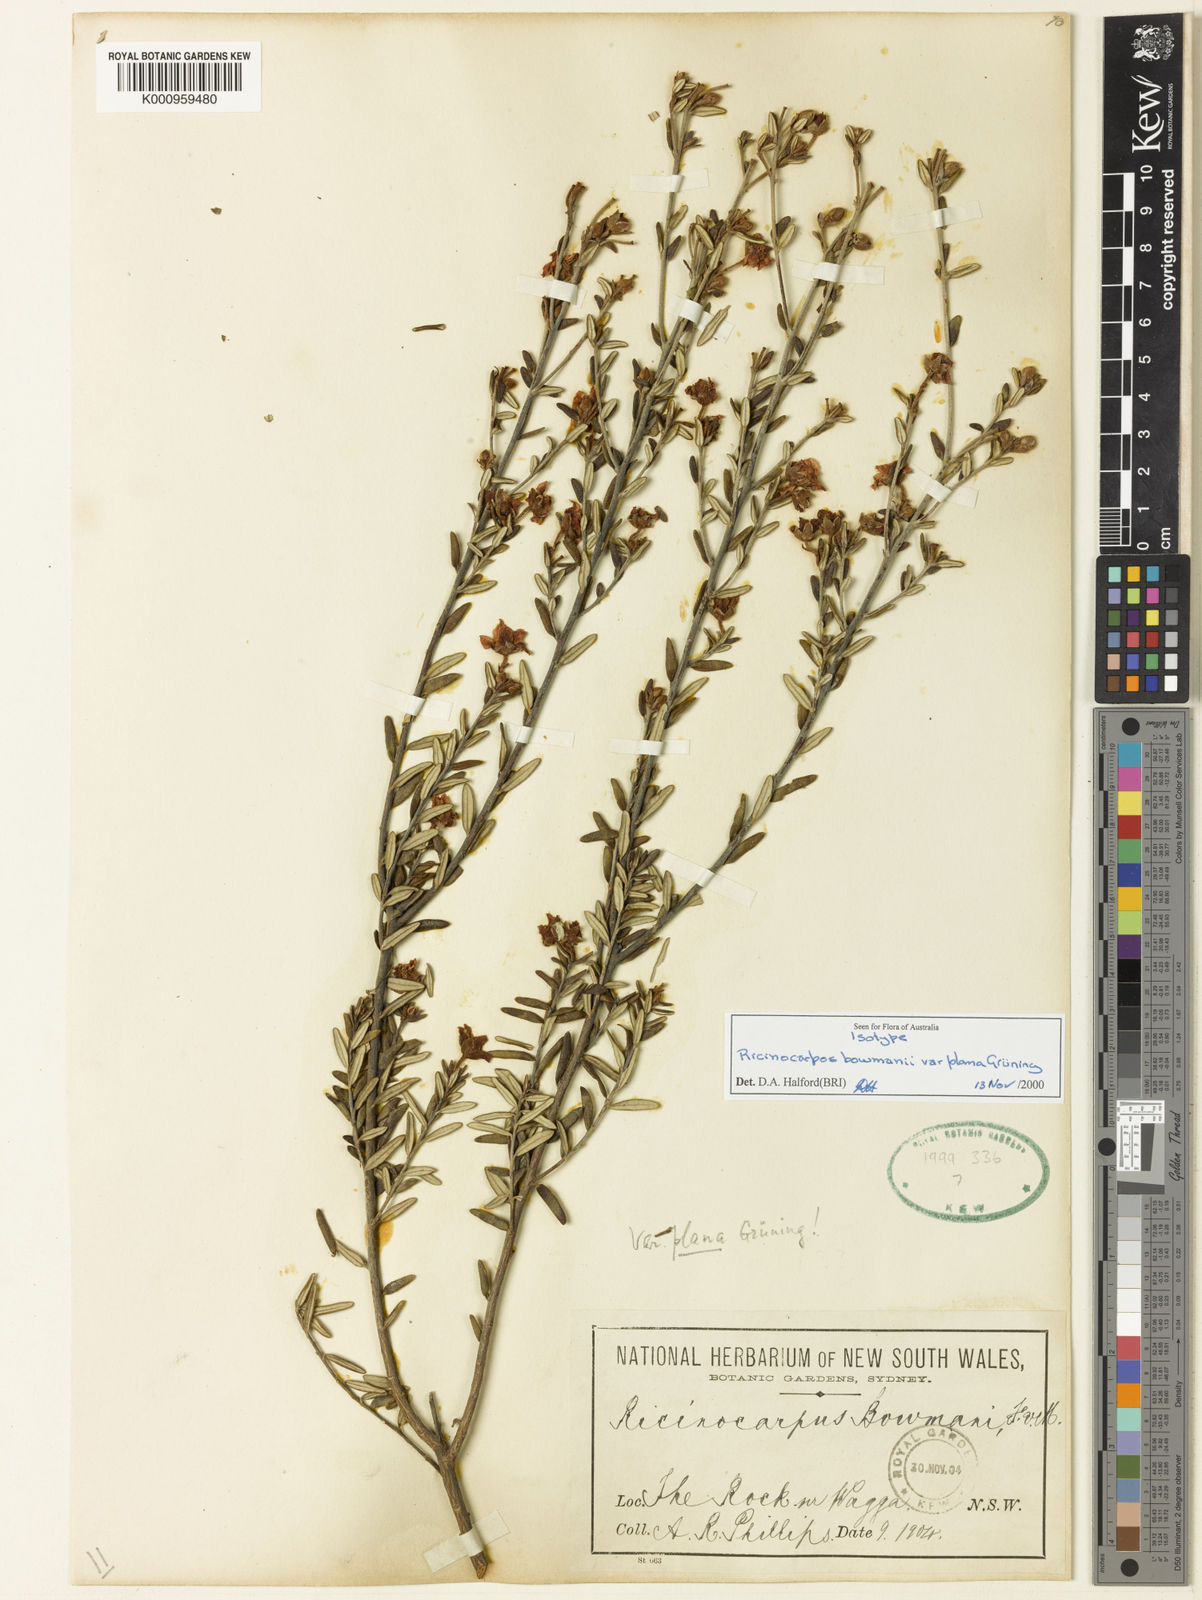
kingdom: Plantae
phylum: Tracheophyta
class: Magnoliopsida
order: Malpighiales
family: Euphorbiaceae
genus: Ricinocarpos
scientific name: Ricinocarpos bowmanii
